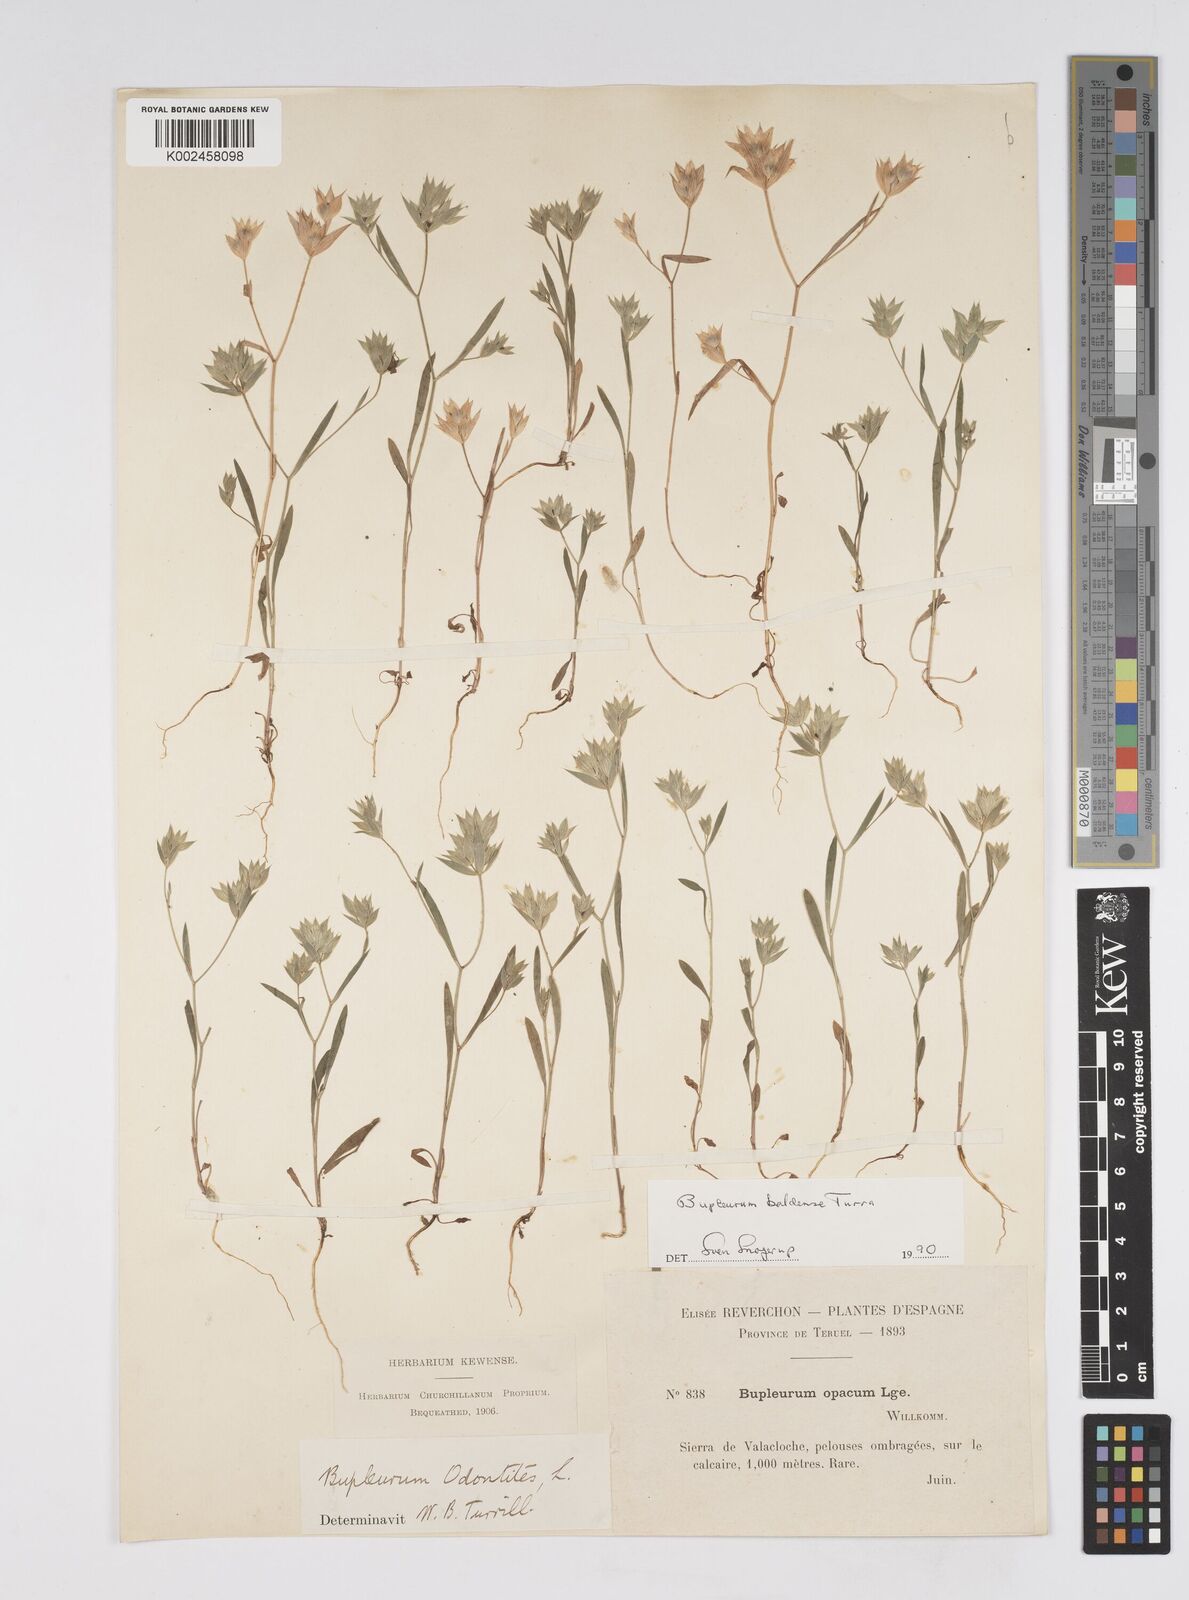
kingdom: Plantae
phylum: Tracheophyta
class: Magnoliopsida
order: Apiales
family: Apiaceae
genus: Bupleurum
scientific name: Bupleurum baldense
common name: Small hare's-ear
